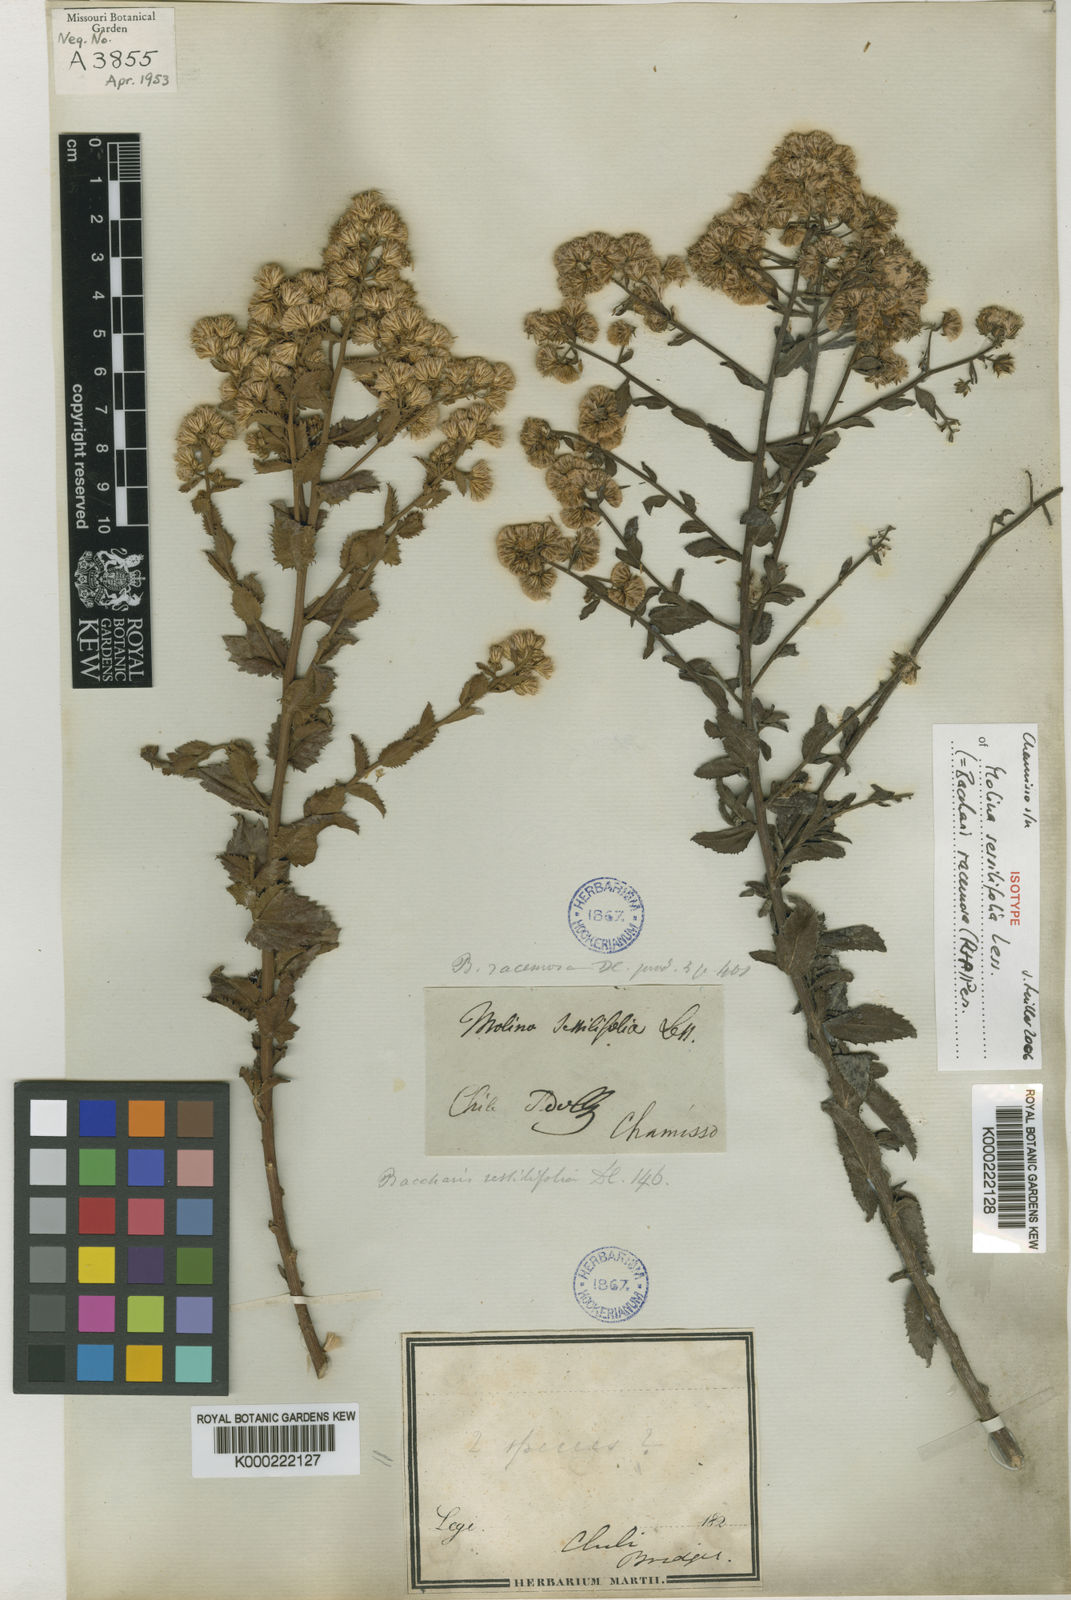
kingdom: Plantae
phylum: Tracheophyta
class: Magnoliopsida
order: Asterales
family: Asteraceae
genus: Baccharis
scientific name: Baccharis racemosa
